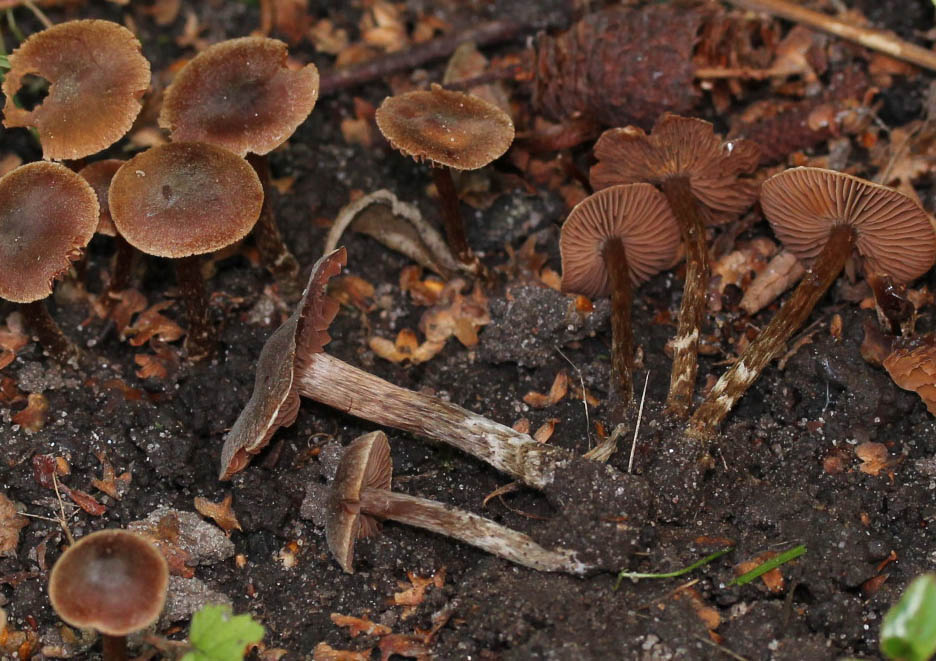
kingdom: Fungi
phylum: Basidiomycota
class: Agaricomycetes
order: Agaricales
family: Cortinariaceae
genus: Cortinarius
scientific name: Cortinarius
